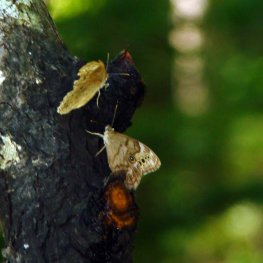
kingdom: Animalia
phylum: Arthropoda
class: Insecta
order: Lepidoptera
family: Nymphalidae
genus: Lethe
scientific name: Lethe anthedon
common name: Northern Pearly-Eye
